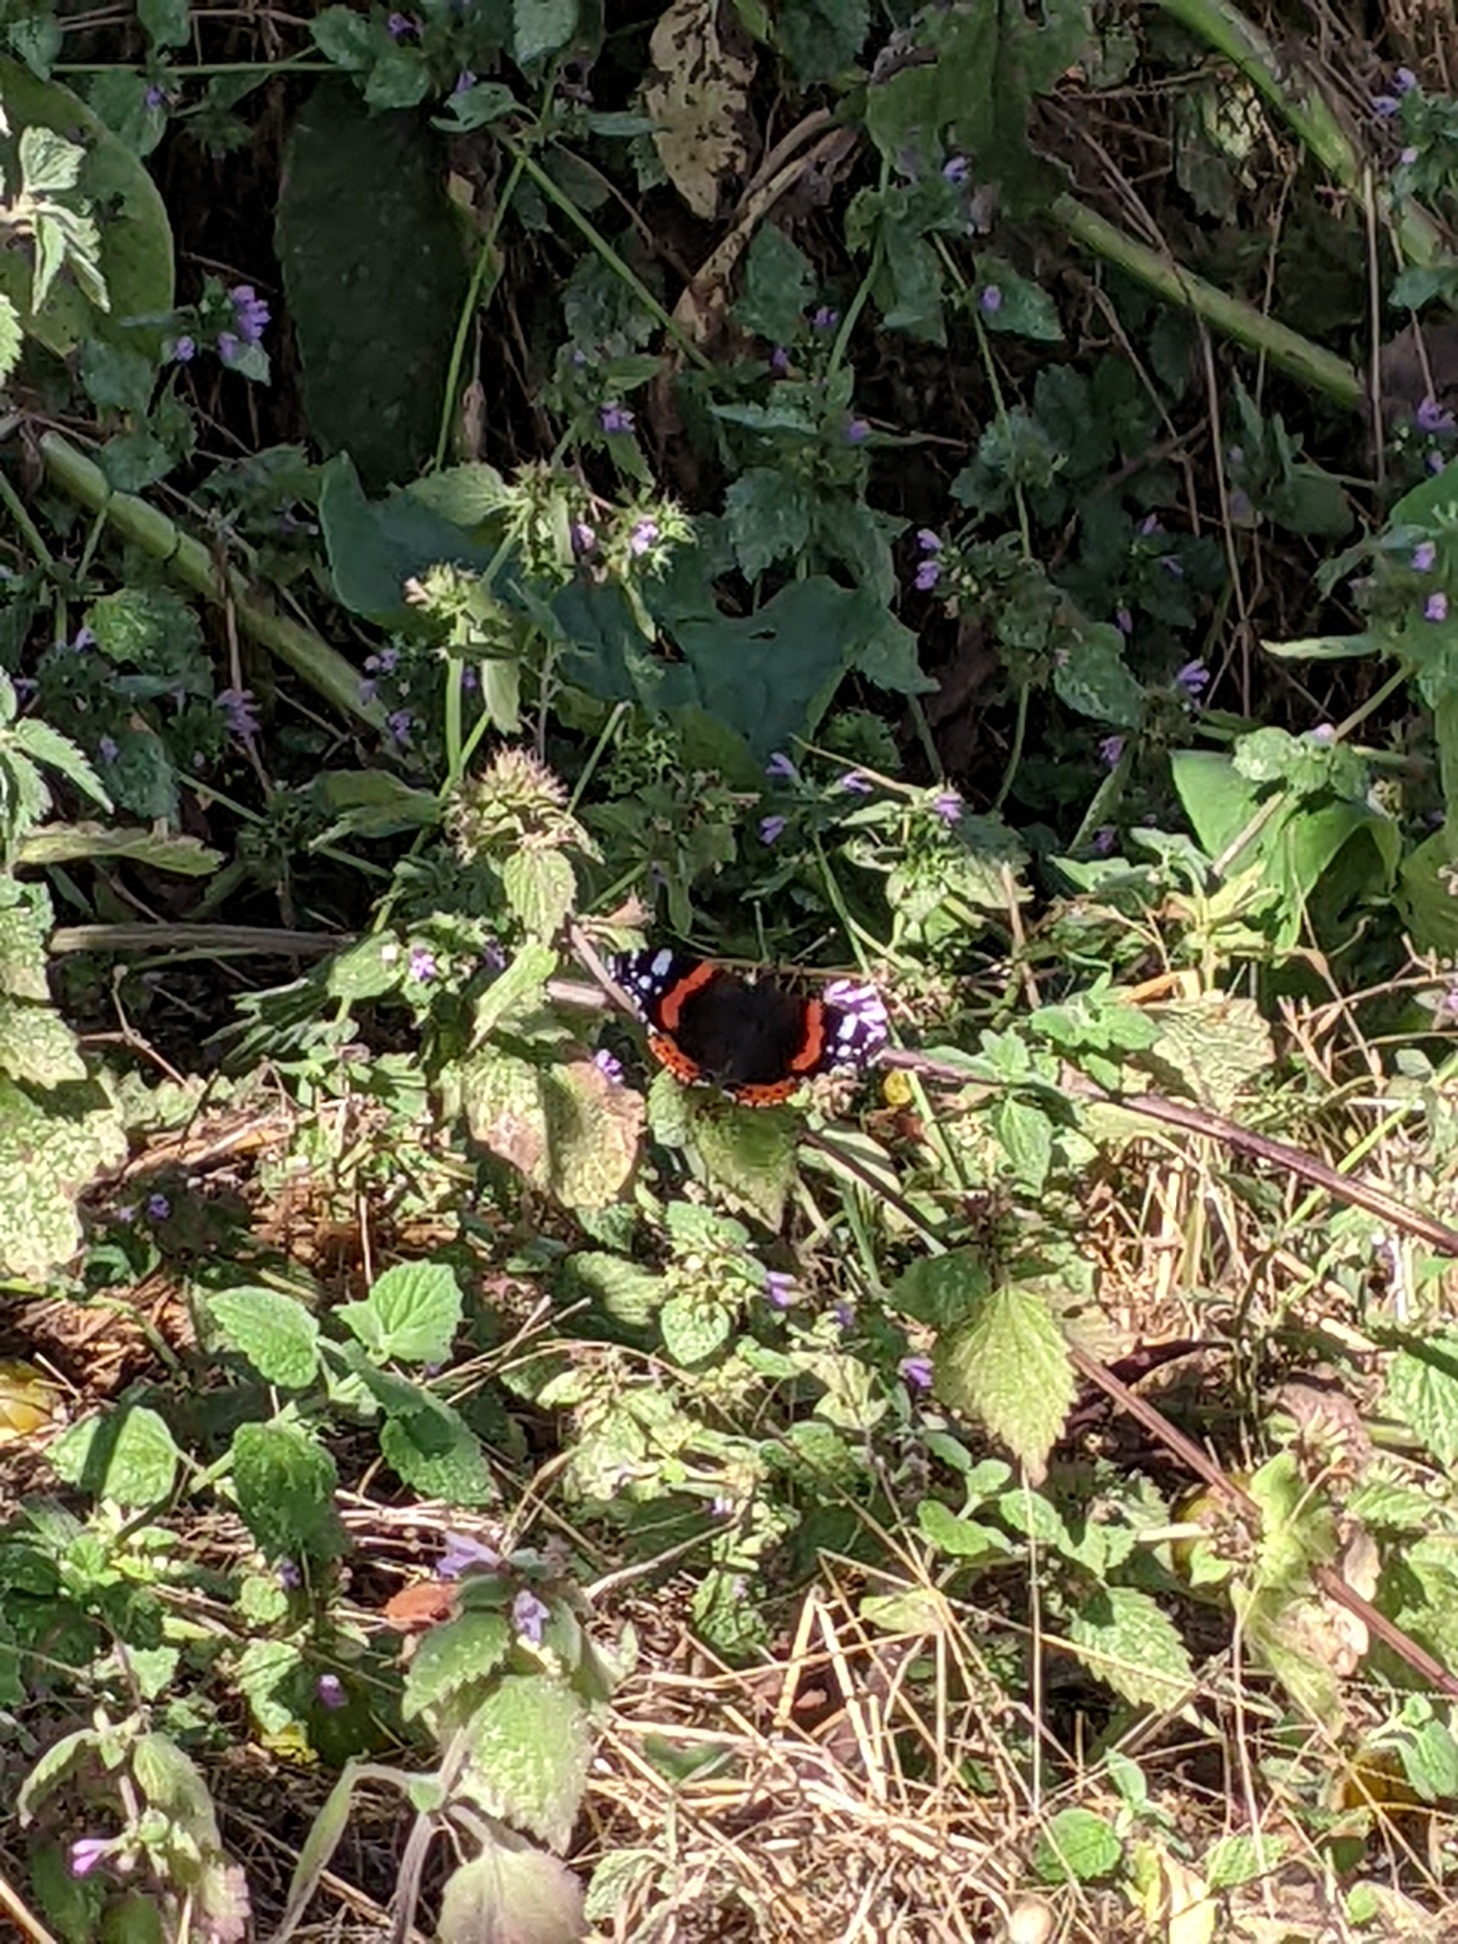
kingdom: Animalia
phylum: Arthropoda
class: Insecta
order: Lepidoptera
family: Nymphalidae
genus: Vanessa
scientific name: Vanessa atalanta
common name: Admiral
